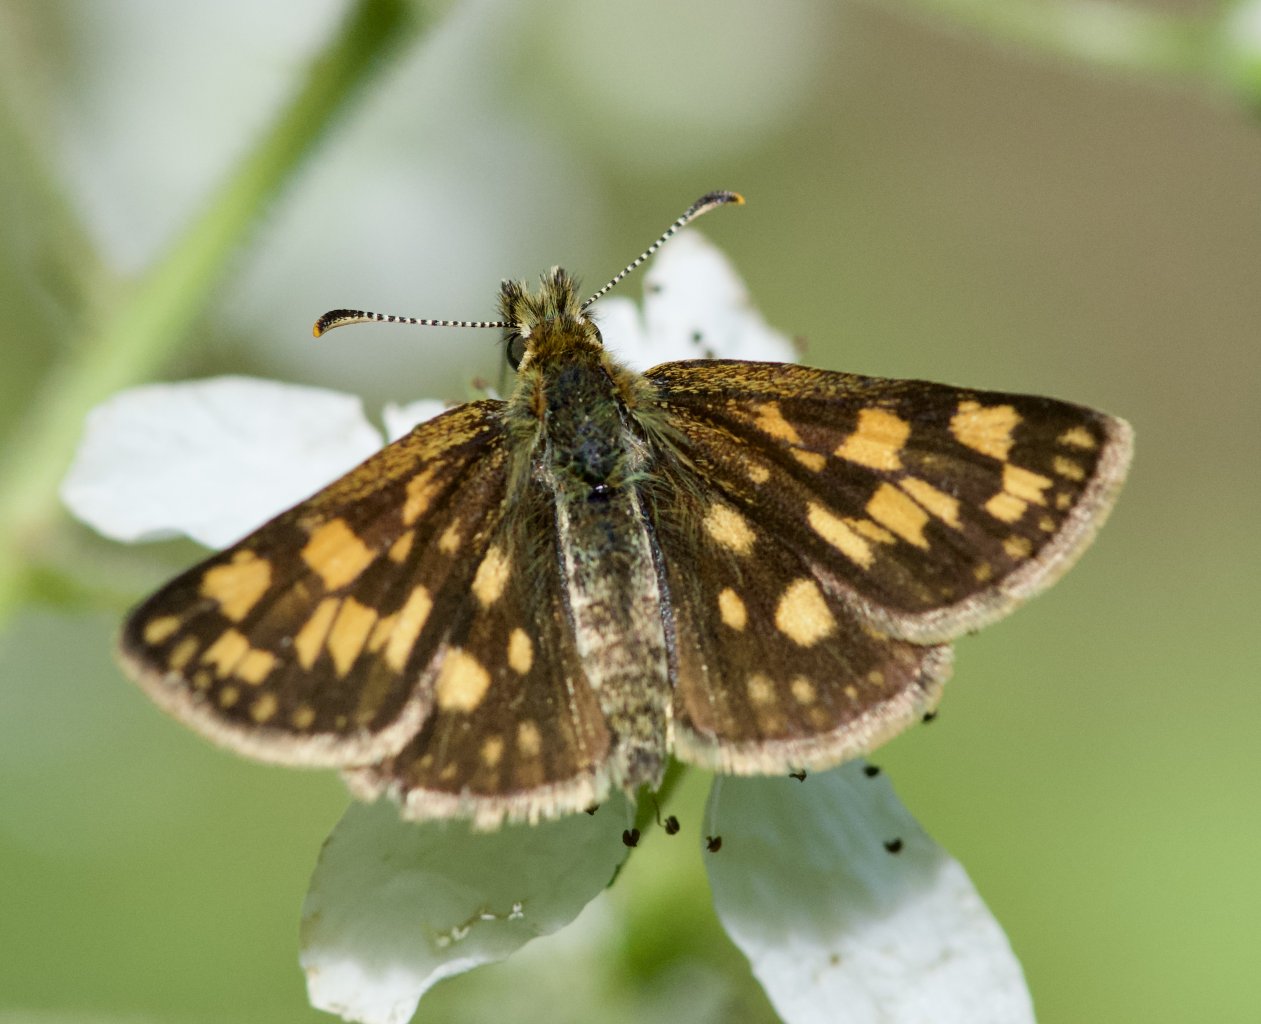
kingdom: Animalia
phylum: Arthropoda
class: Insecta
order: Lepidoptera
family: Hesperiidae
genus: Carterocephalus
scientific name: Carterocephalus palaemon
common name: Chequered Skipper
